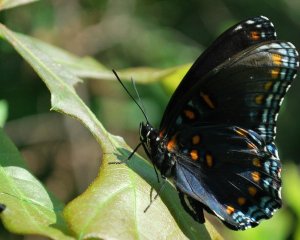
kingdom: Animalia
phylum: Arthropoda
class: Insecta
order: Lepidoptera
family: Nymphalidae
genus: Limenitis
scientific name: Limenitis astyanax
